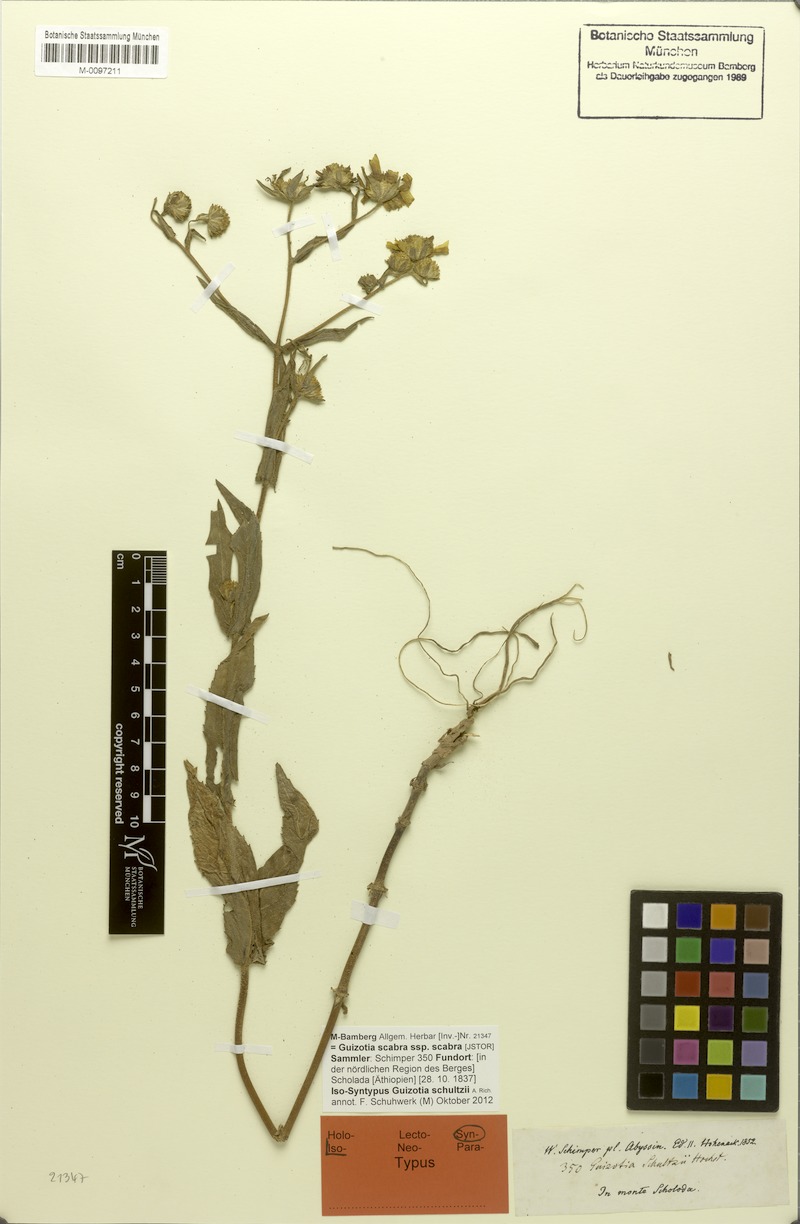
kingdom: Plantae
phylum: Tracheophyta
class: Magnoliopsida
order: Asterales
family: Asteraceae
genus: Guizotia
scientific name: Guizotia scabra
